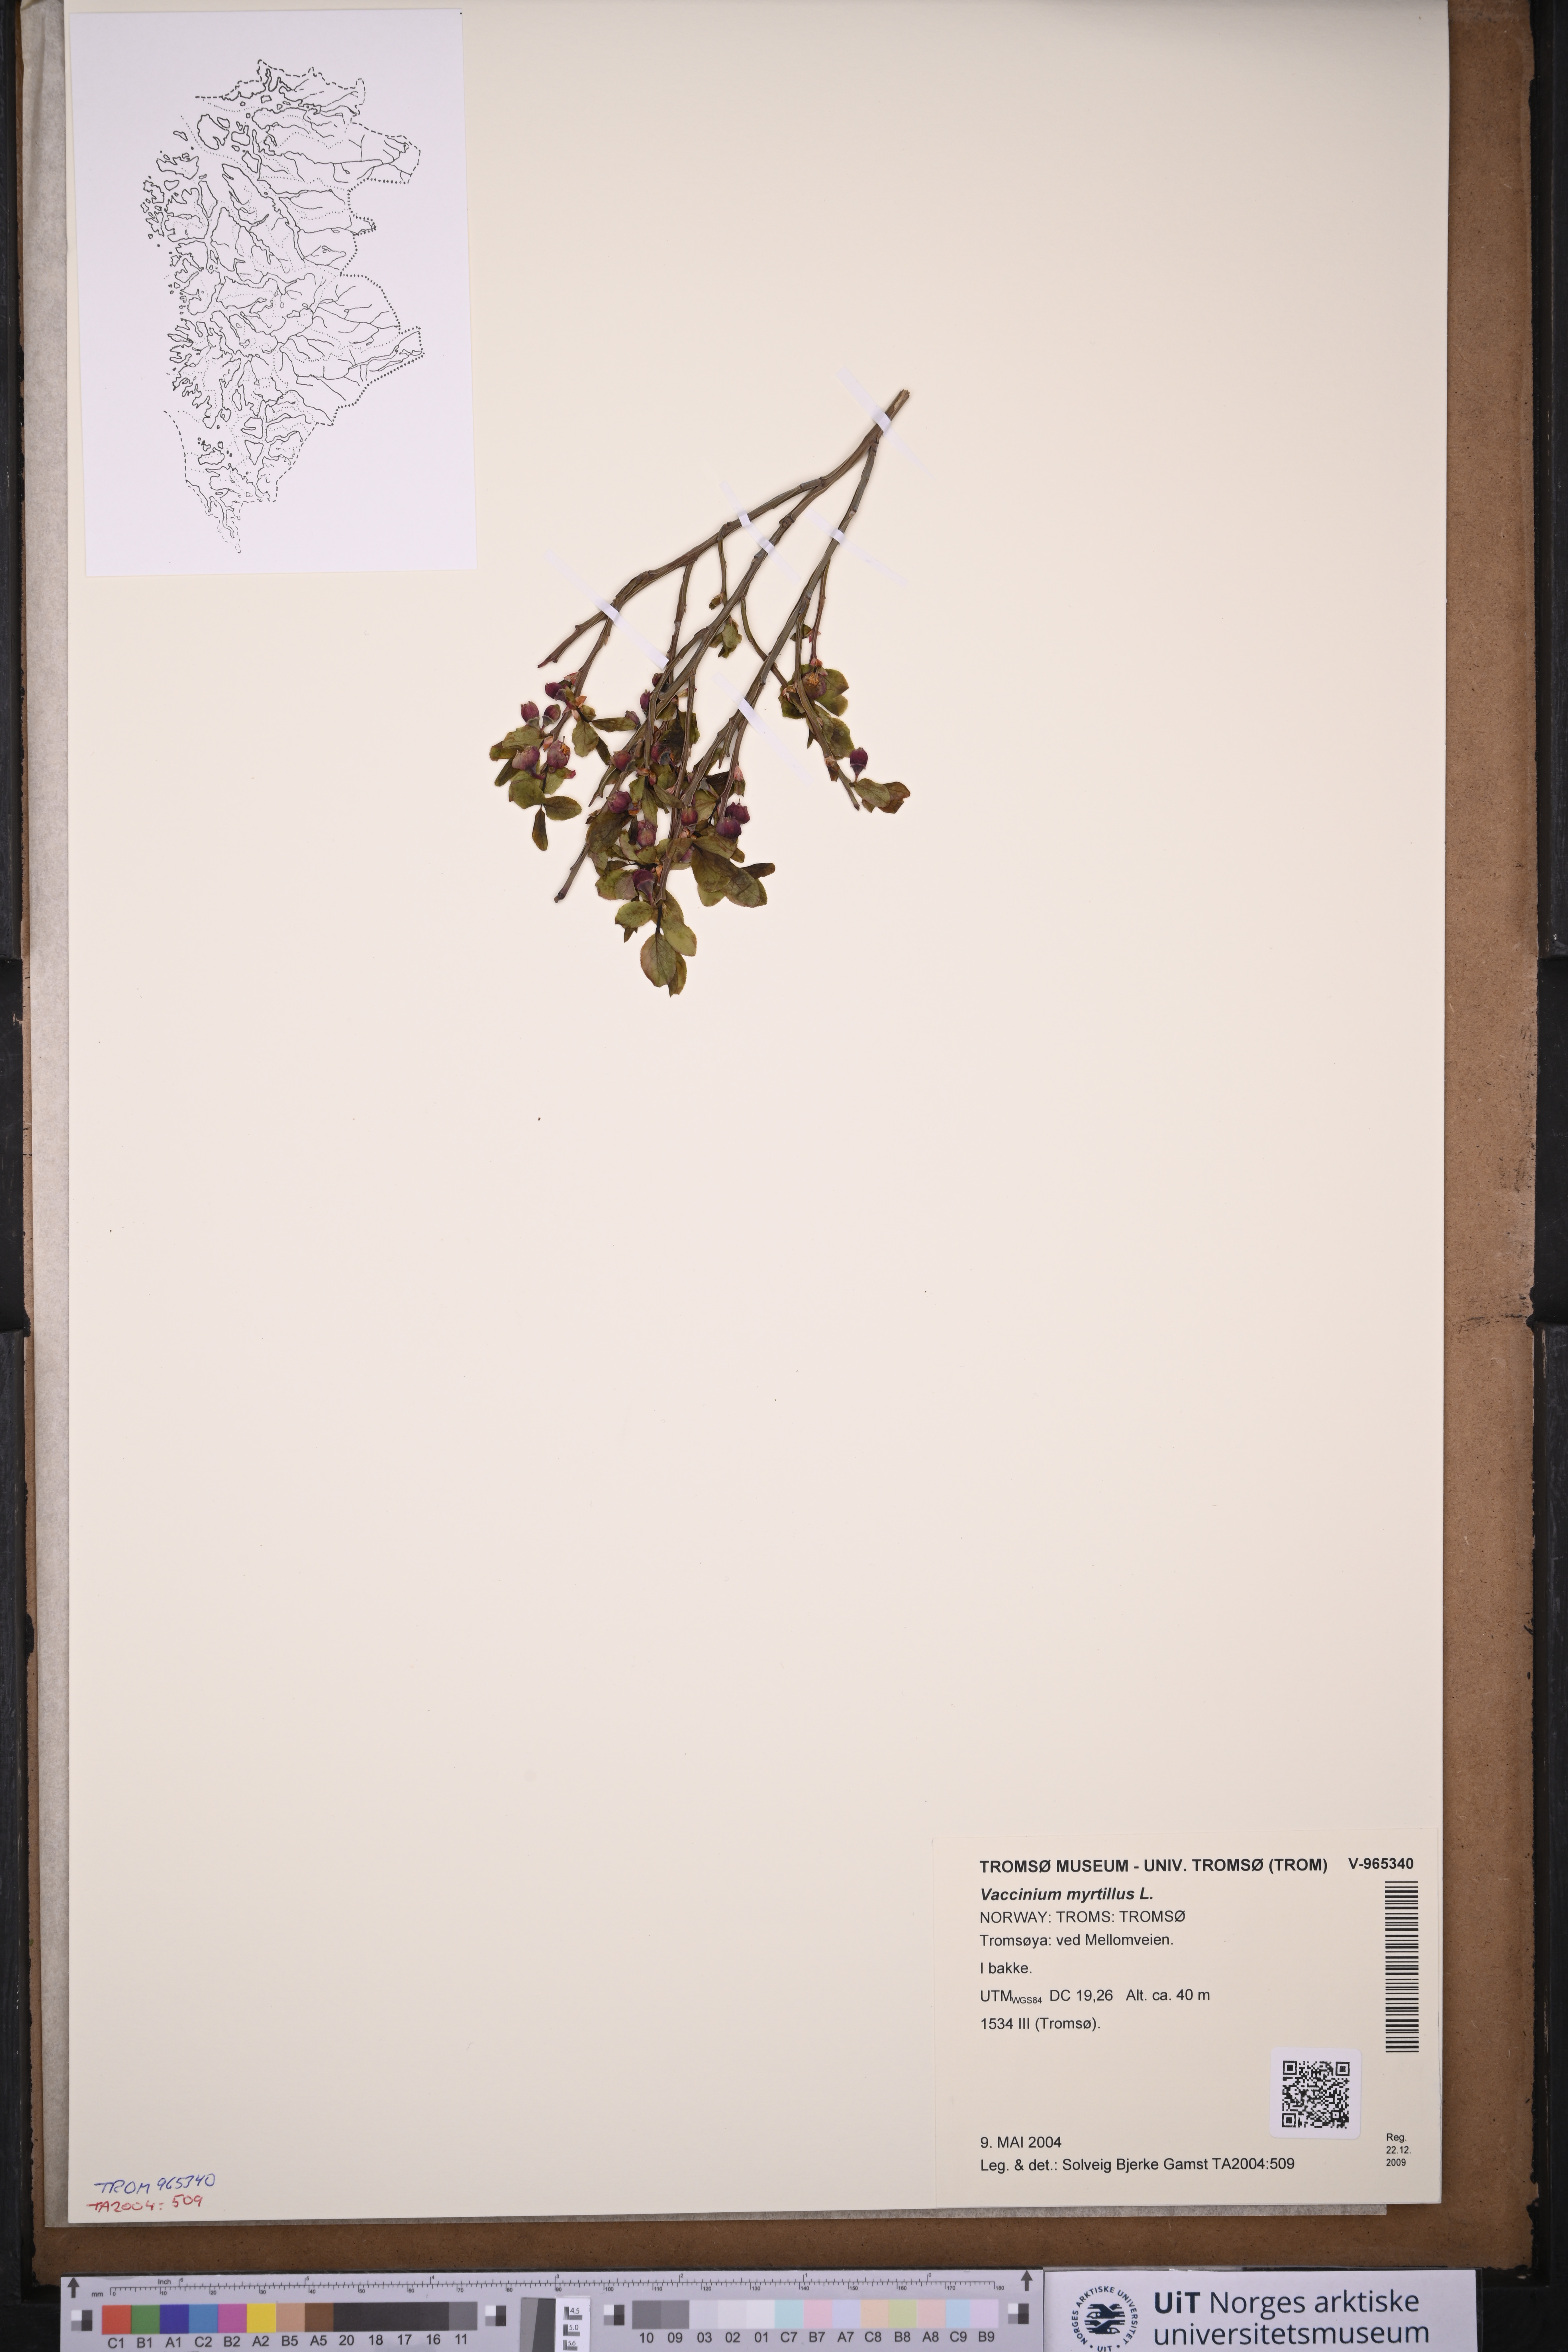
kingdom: Plantae
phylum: Tracheophyta
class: Magnoliopsida
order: Ericales
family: Ericaceae
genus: Vaccinium
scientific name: Vaccinium myrtillus
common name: Bilberry
